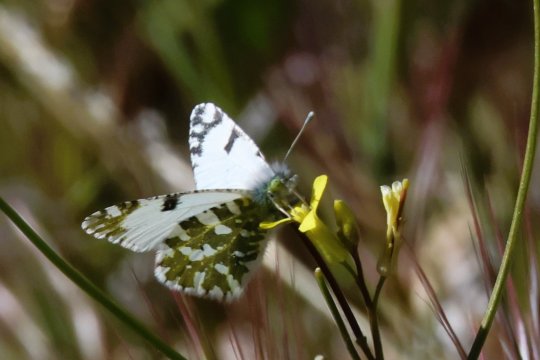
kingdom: Animalia
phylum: Arthropoda
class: Insecta
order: Lepidoptera
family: Pieridae
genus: Euchloe
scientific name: Euchloe lotta
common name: Desert Marble
